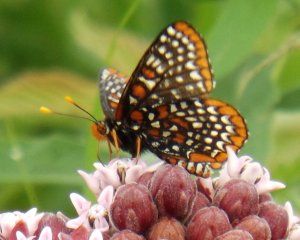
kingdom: Animalia
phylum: Arthropoda
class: Insecta
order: Lepidoptera
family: Nymphalidae
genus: Euphydryas
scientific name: Euphydryas phaeton
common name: Baltimore Checkerspot
